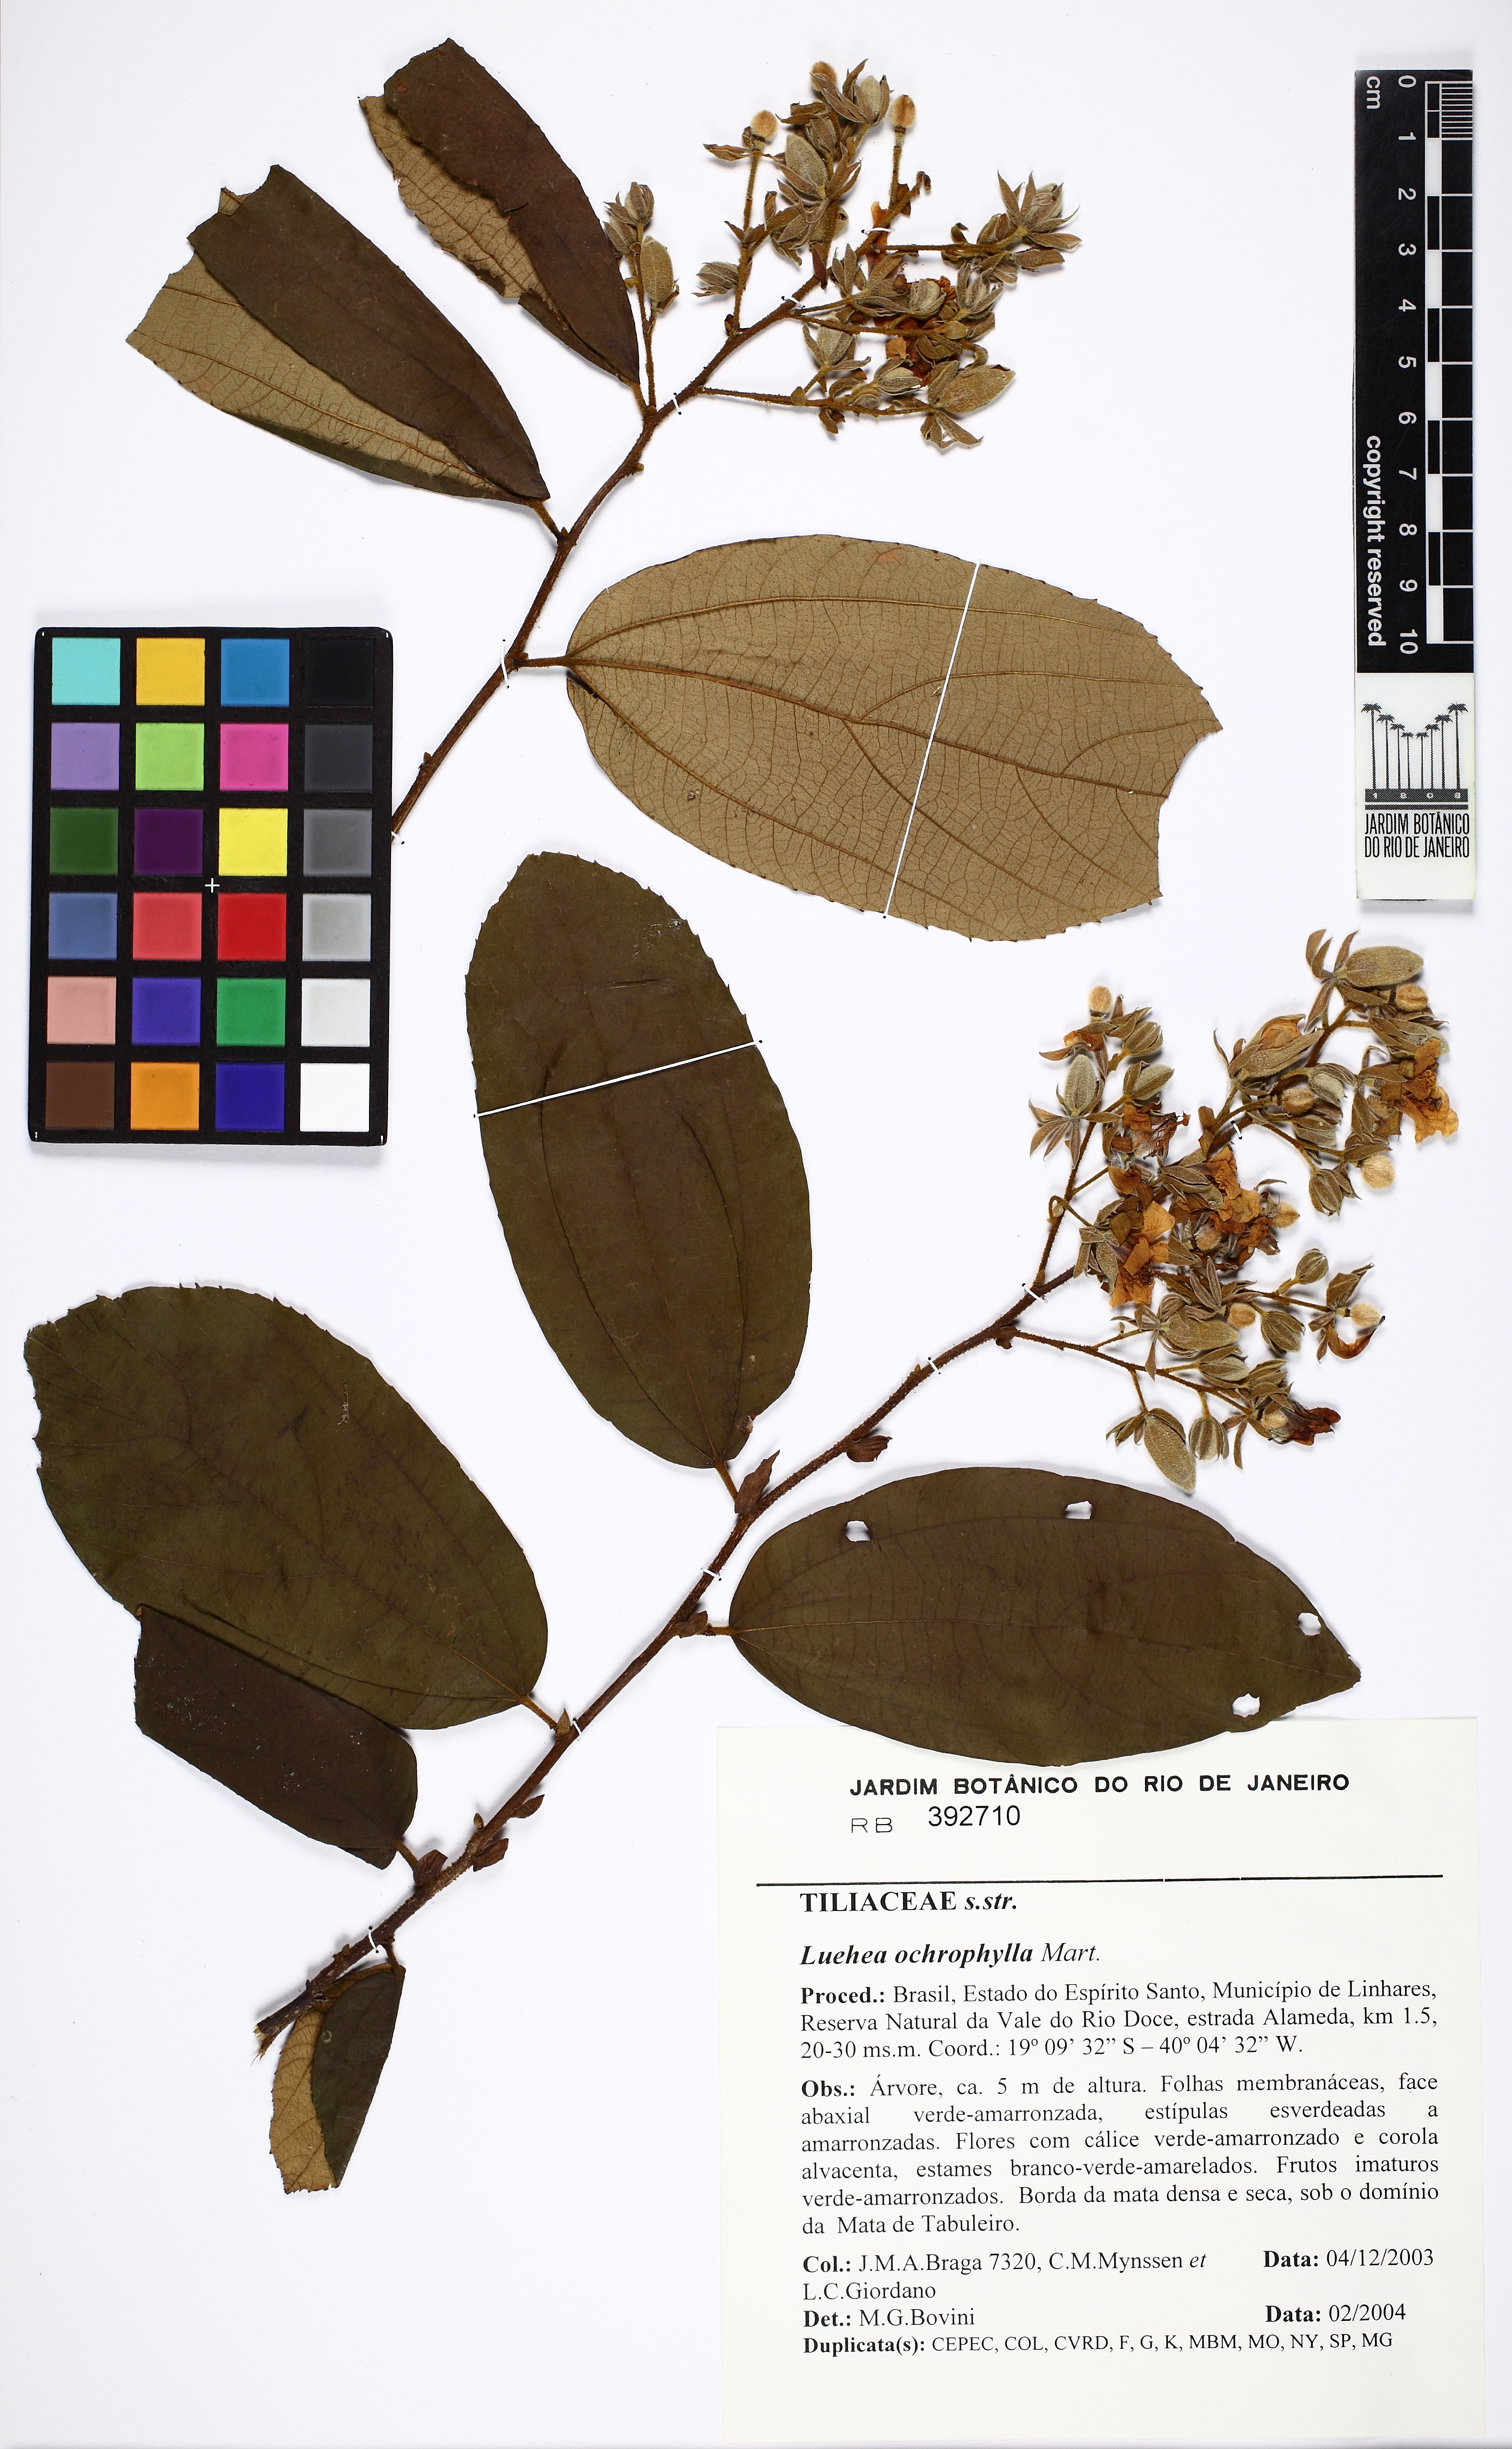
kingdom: Plantae
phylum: Tracheophyta
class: Magnoliopsida
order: Malvales
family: Malvaceae
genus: Luehea
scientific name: Luehea ochrophylla
